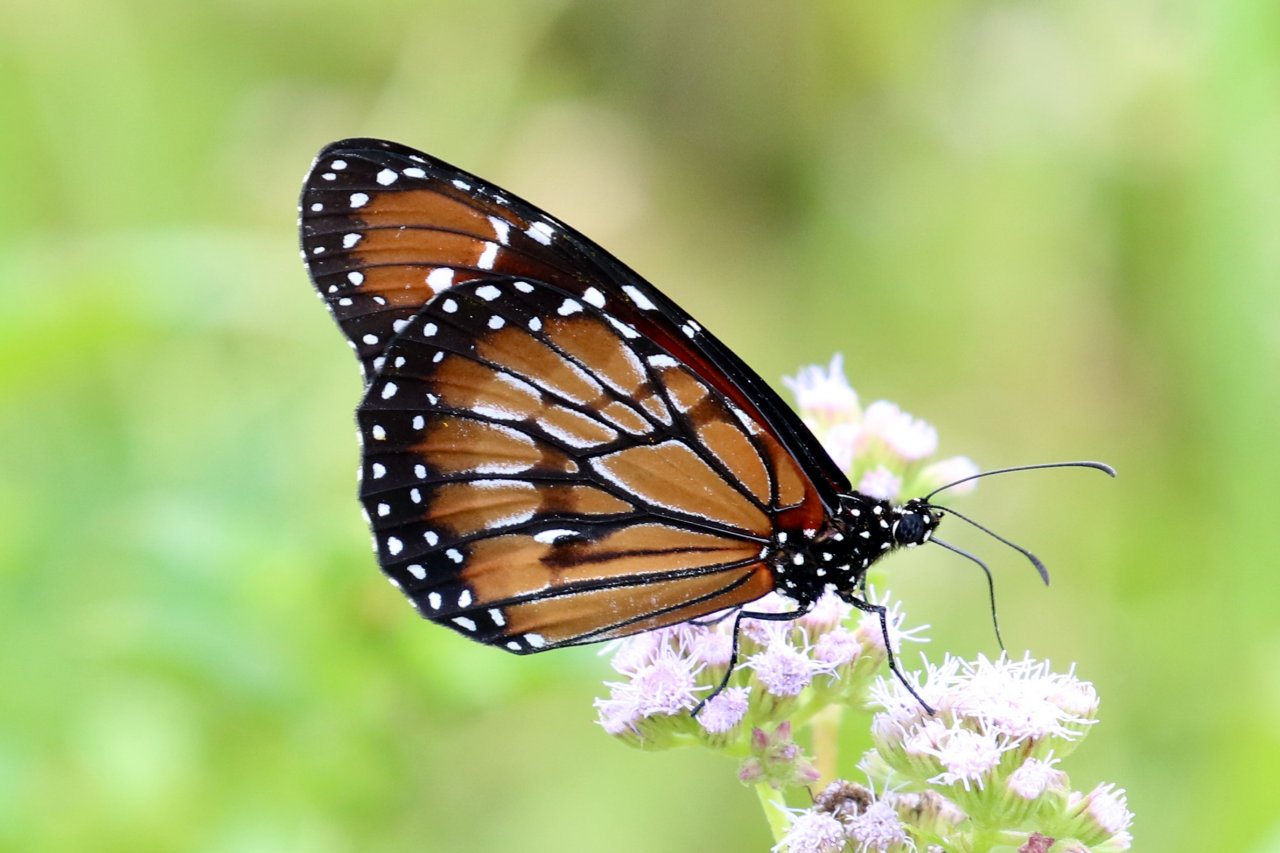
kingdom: Animalia
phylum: Arthropoda
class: Insecta
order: Lepidoptera
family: Nymphalidae
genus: Danaus
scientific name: Danaus eresimus
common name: Soldier
